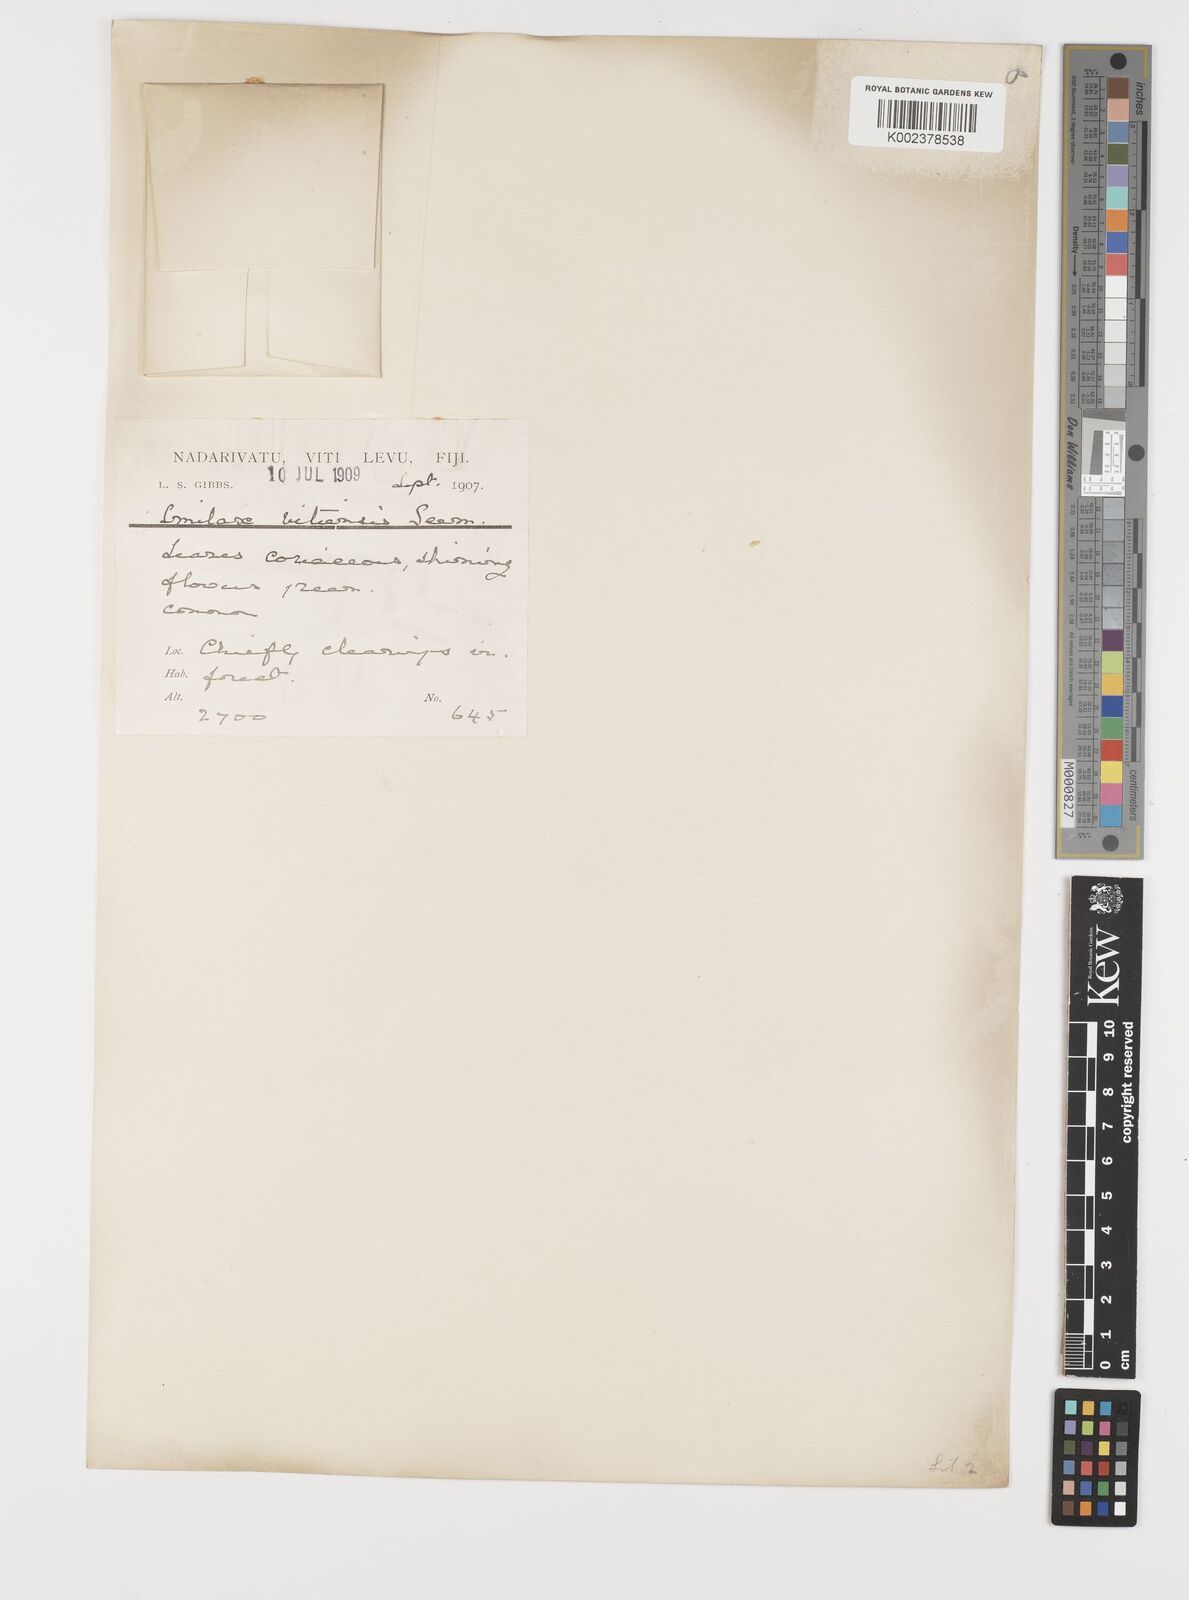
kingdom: Plantae
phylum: Tracheophyta
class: Liliopsida
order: Liliales
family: Smilacaceae
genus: Smilax
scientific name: Smilax vitiensis
